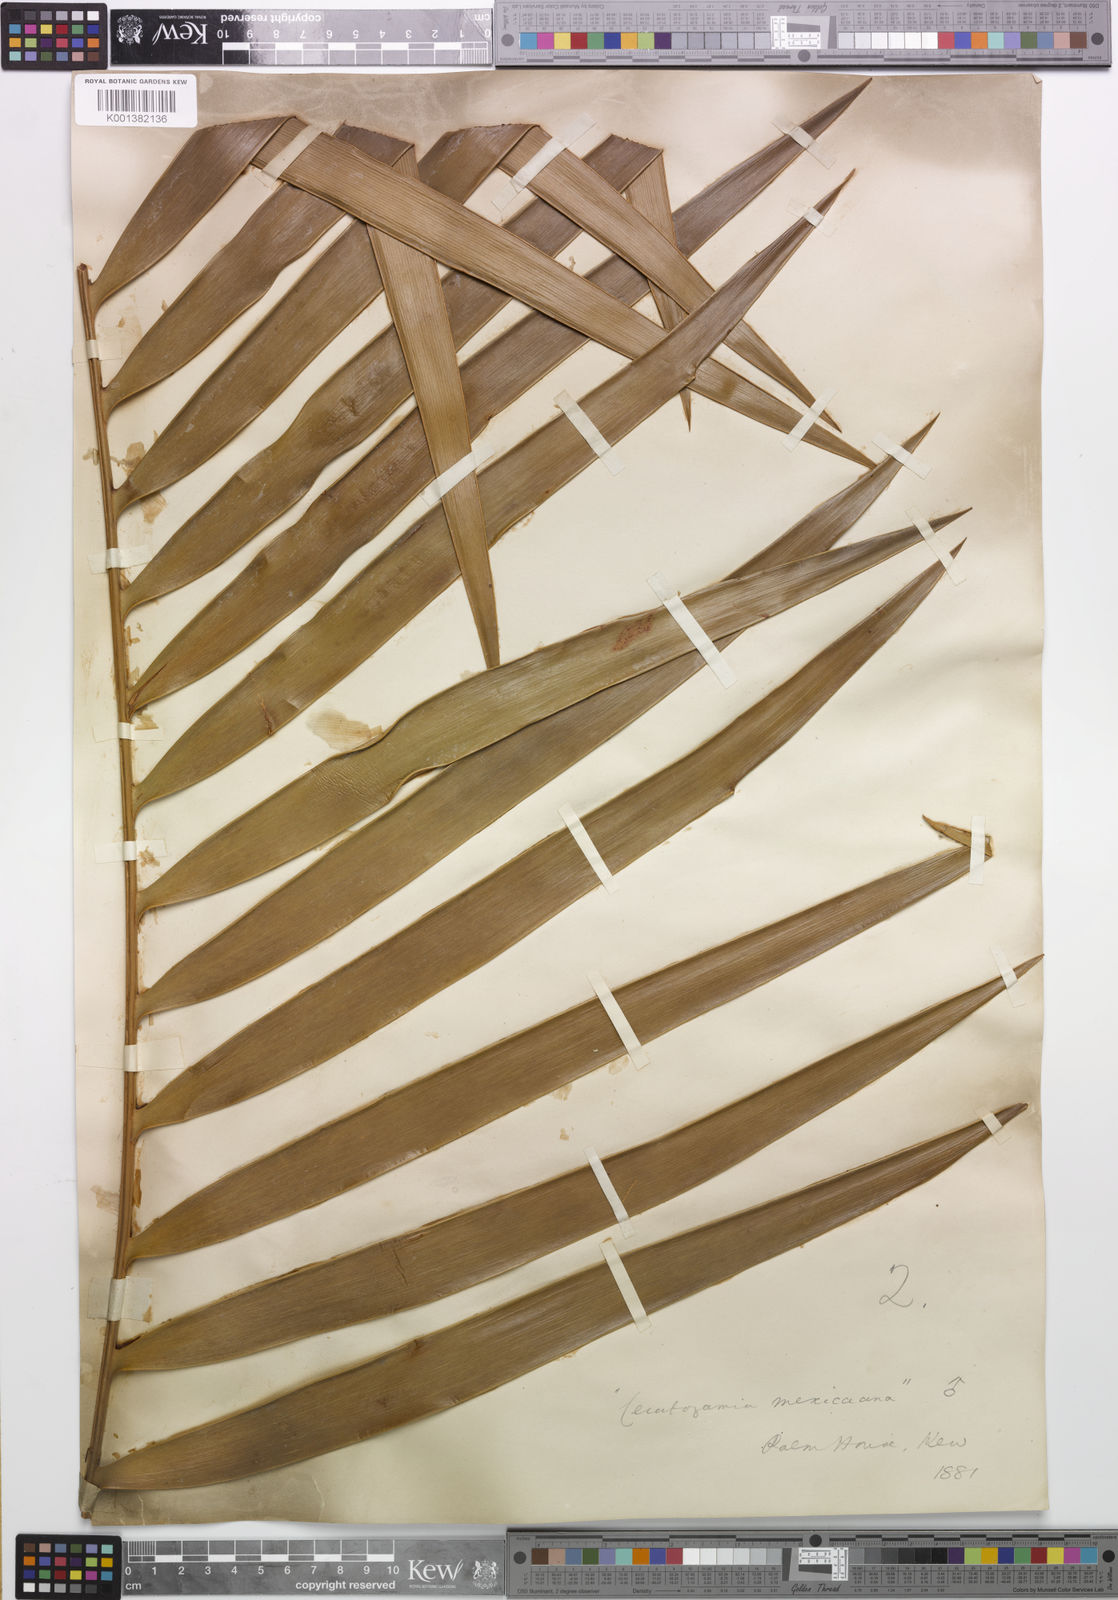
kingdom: Plantae
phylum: Tracheophyta
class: Cycadopsida
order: Cycadales
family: Zamiaceae
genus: Ceratozamia
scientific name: Ceratozamia mexicana
